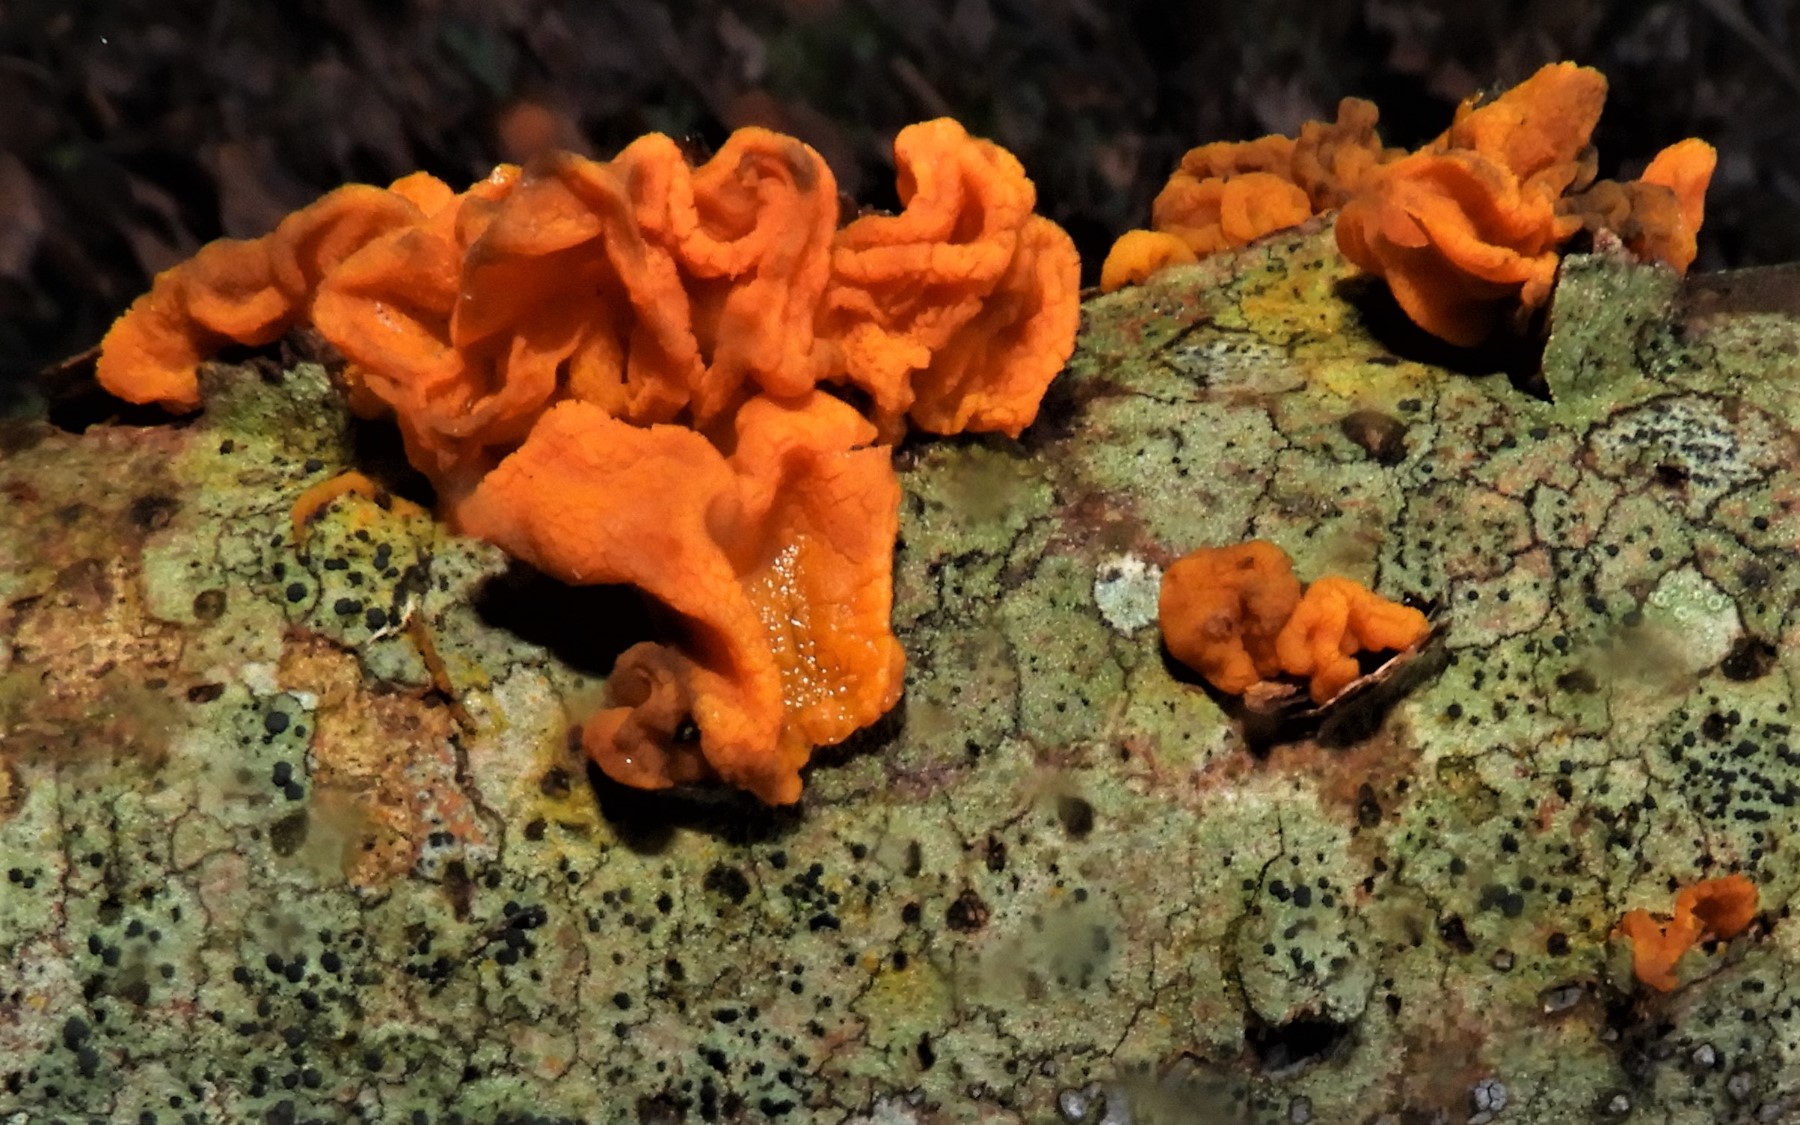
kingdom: Fungi
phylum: Basidiomycota
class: Tremellomycetes
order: Tremellales
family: Tremellaceae
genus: Tremella
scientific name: Tremella mesenterica
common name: gul bævresvamp
